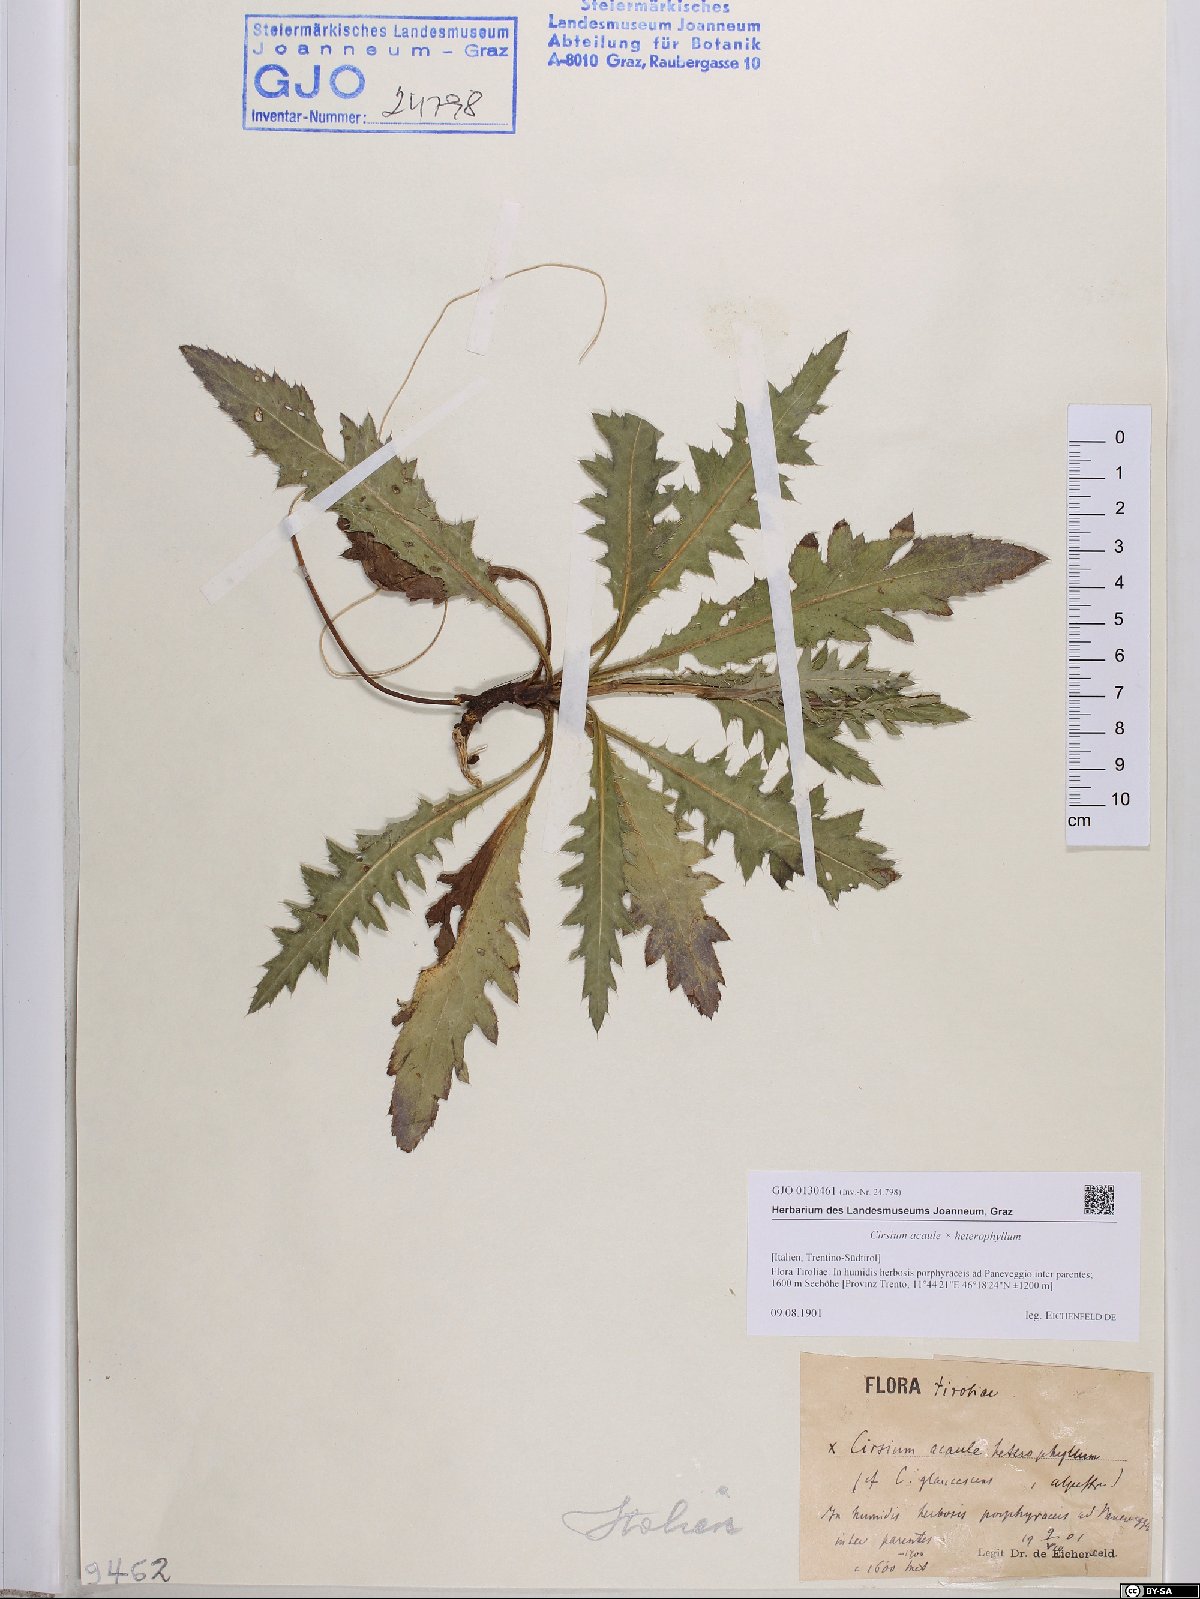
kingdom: Plantae
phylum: Tracheophyta
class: Magnoliopsida
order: Asterales
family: Asteraceae
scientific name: Asteraceae
